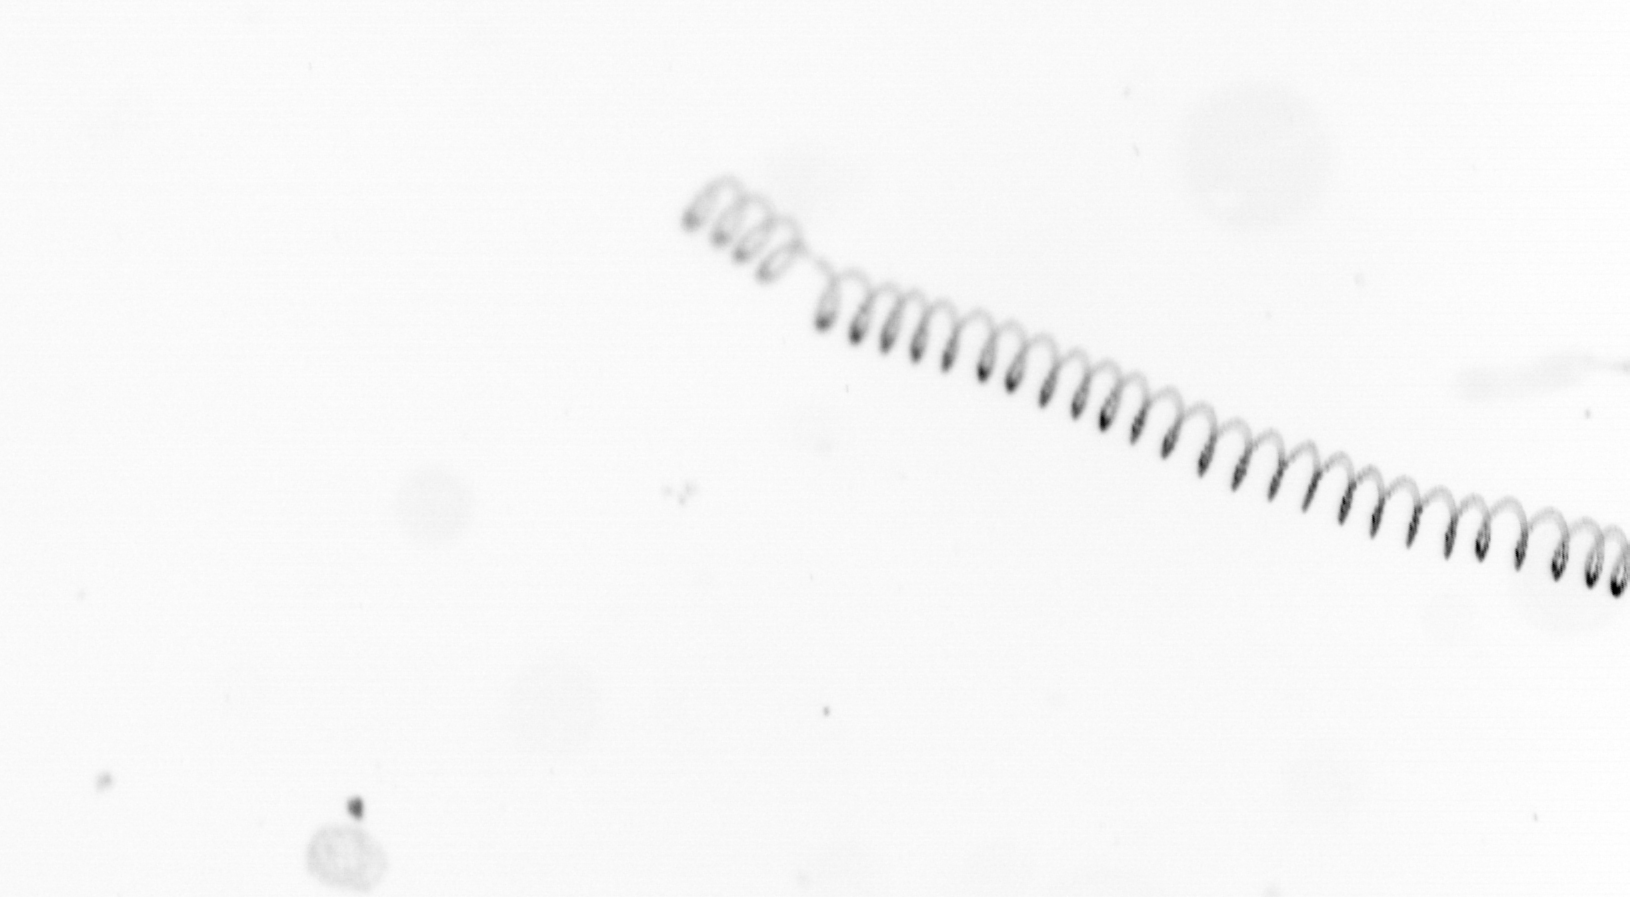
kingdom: Chromista
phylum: Ochrophyta
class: Bacillariophyceae
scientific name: Bacillariophyceae
